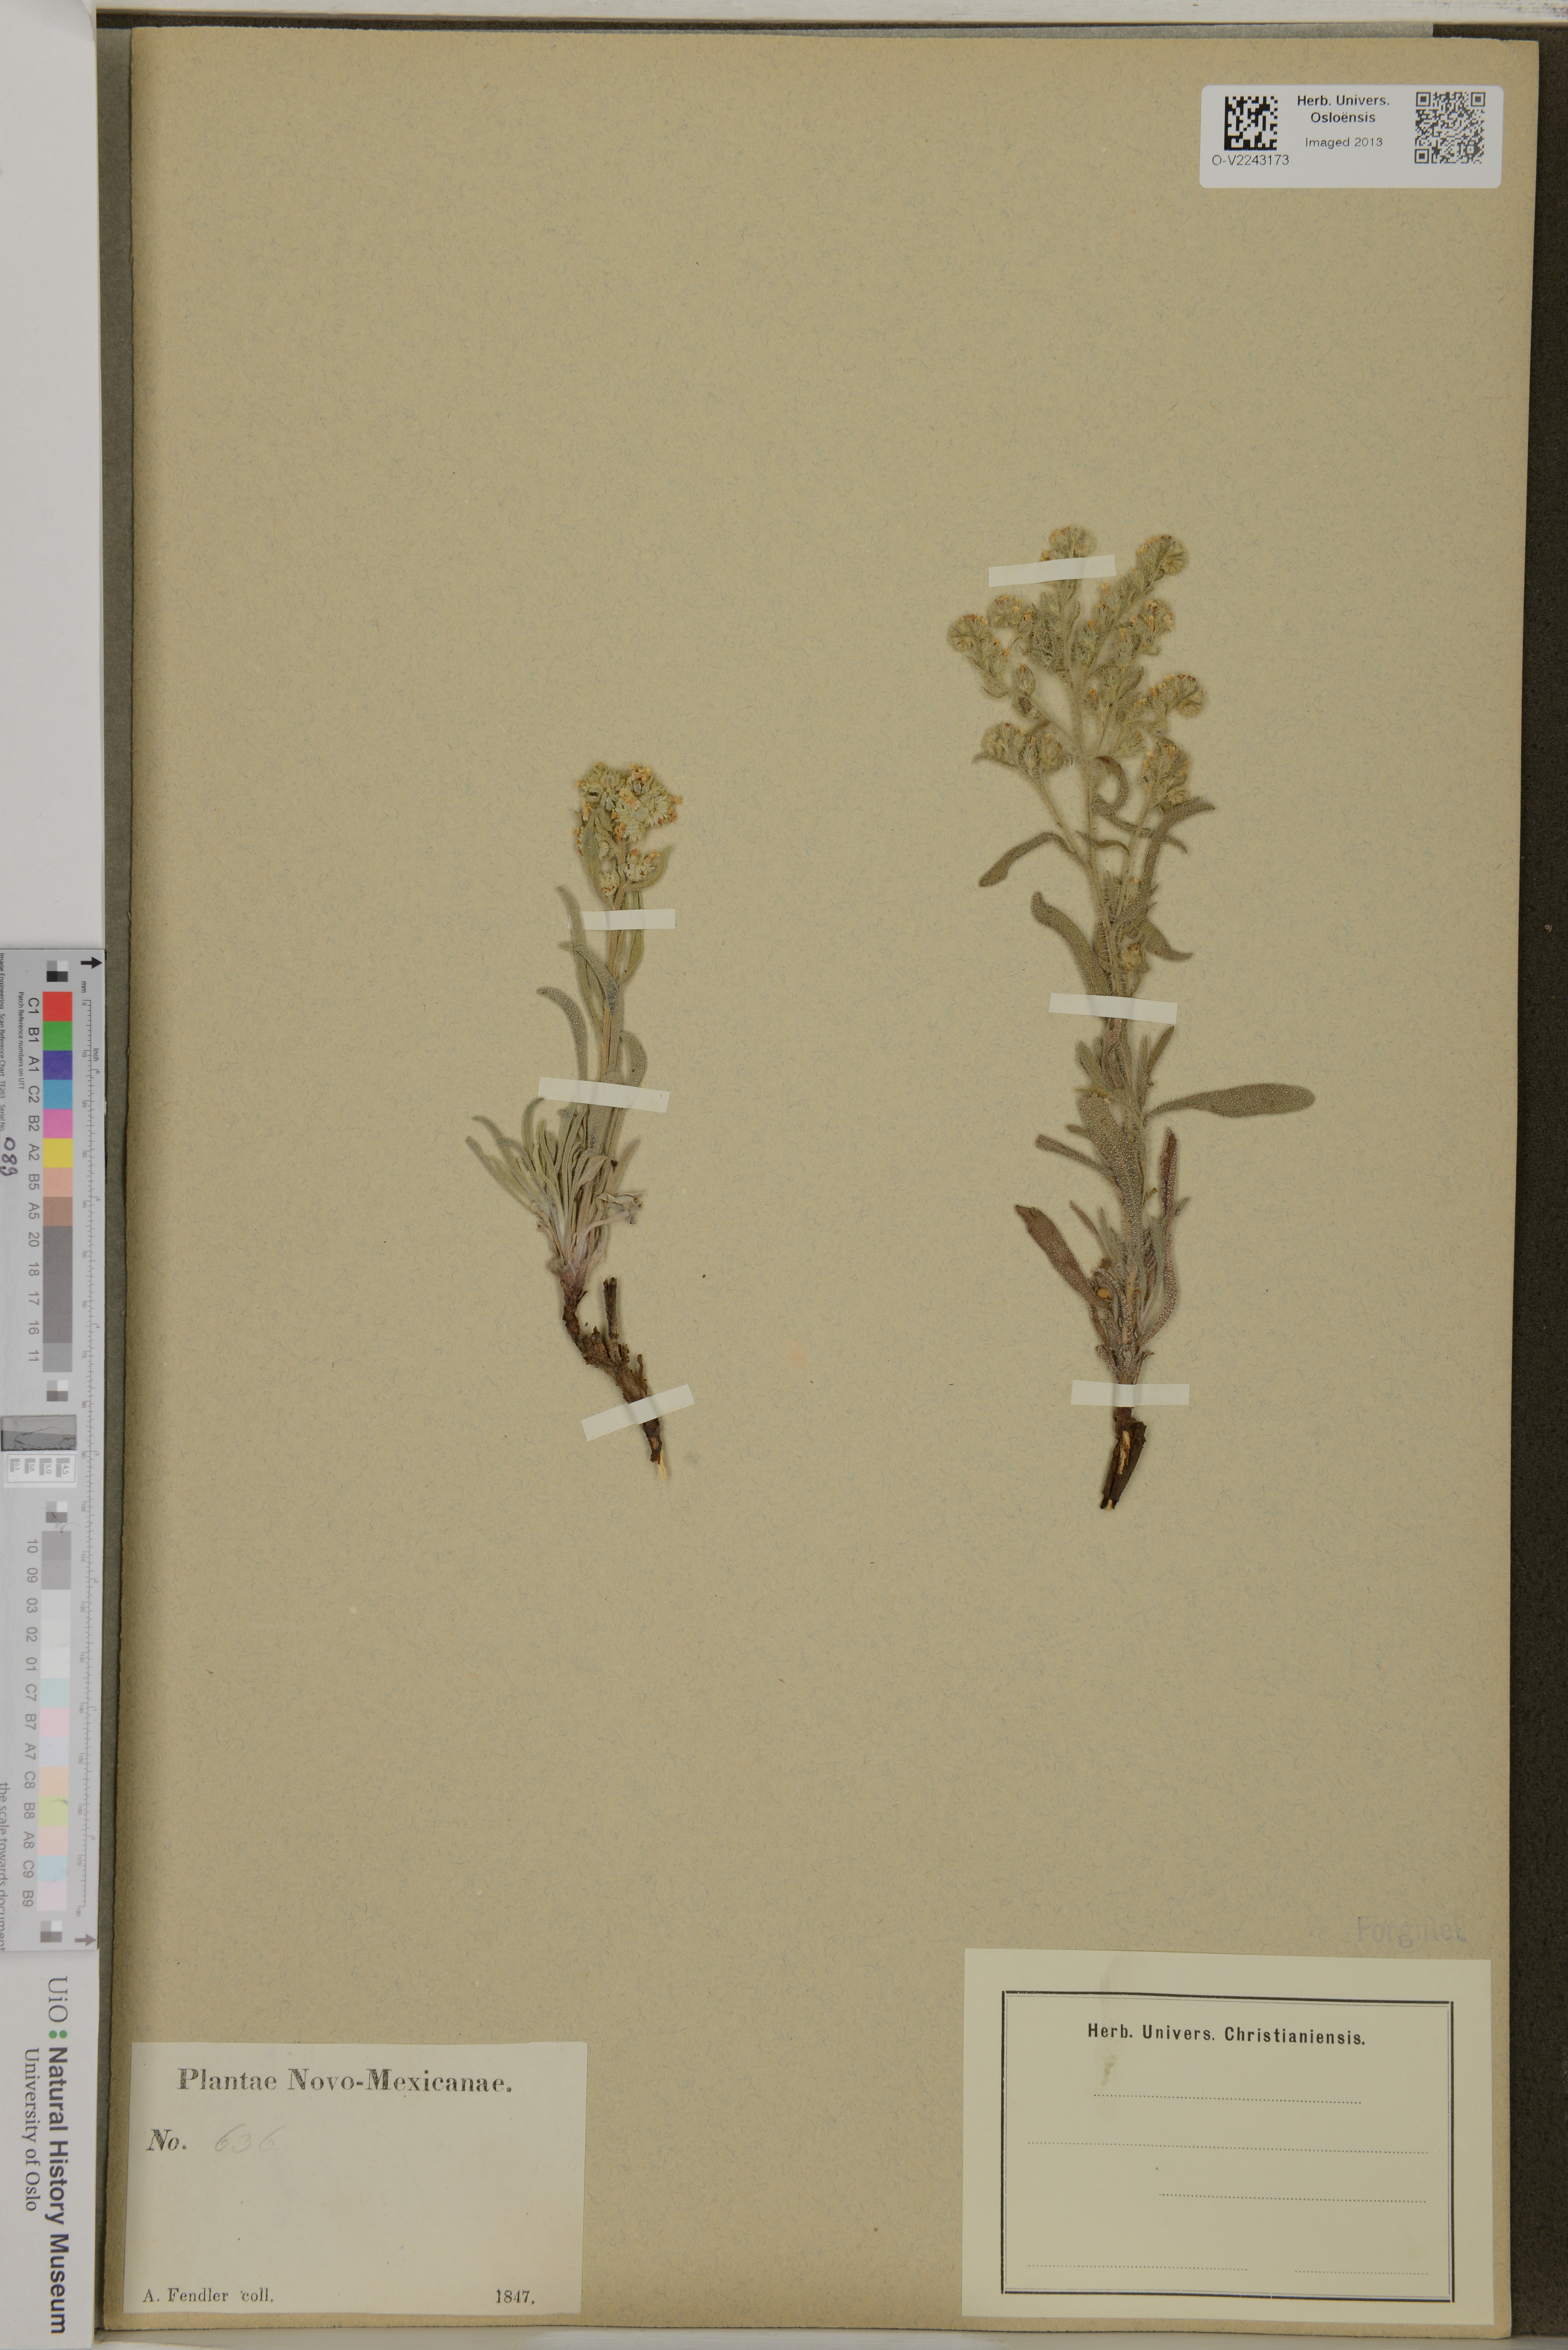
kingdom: Plantae
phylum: Tracheophyta
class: Magnoliopsida
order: Boraginales
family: Boraginaceae
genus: Lithospermum
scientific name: Lithospermum
